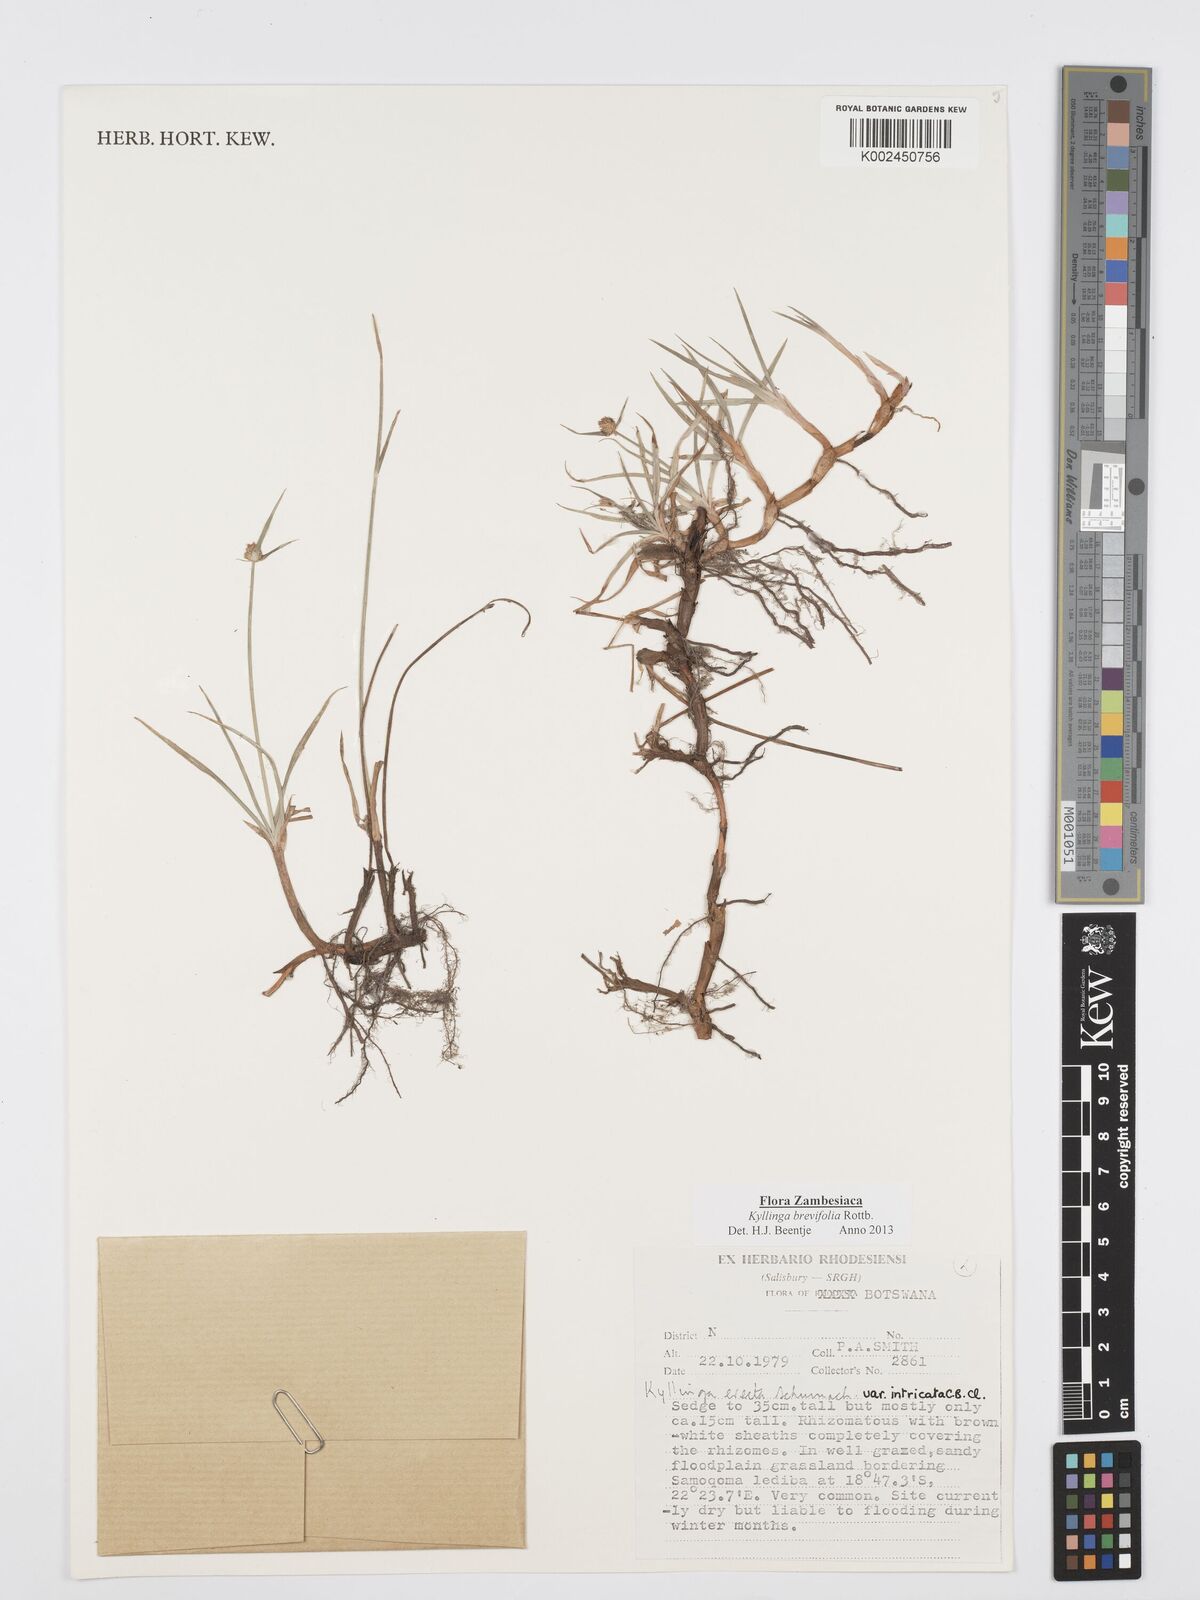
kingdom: Plantae
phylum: Tracheophyta
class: Liliopsida
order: Poales
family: Cyperaceae
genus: Cyperus
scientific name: Cyperus brevifolius
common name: Globe kyllinga
